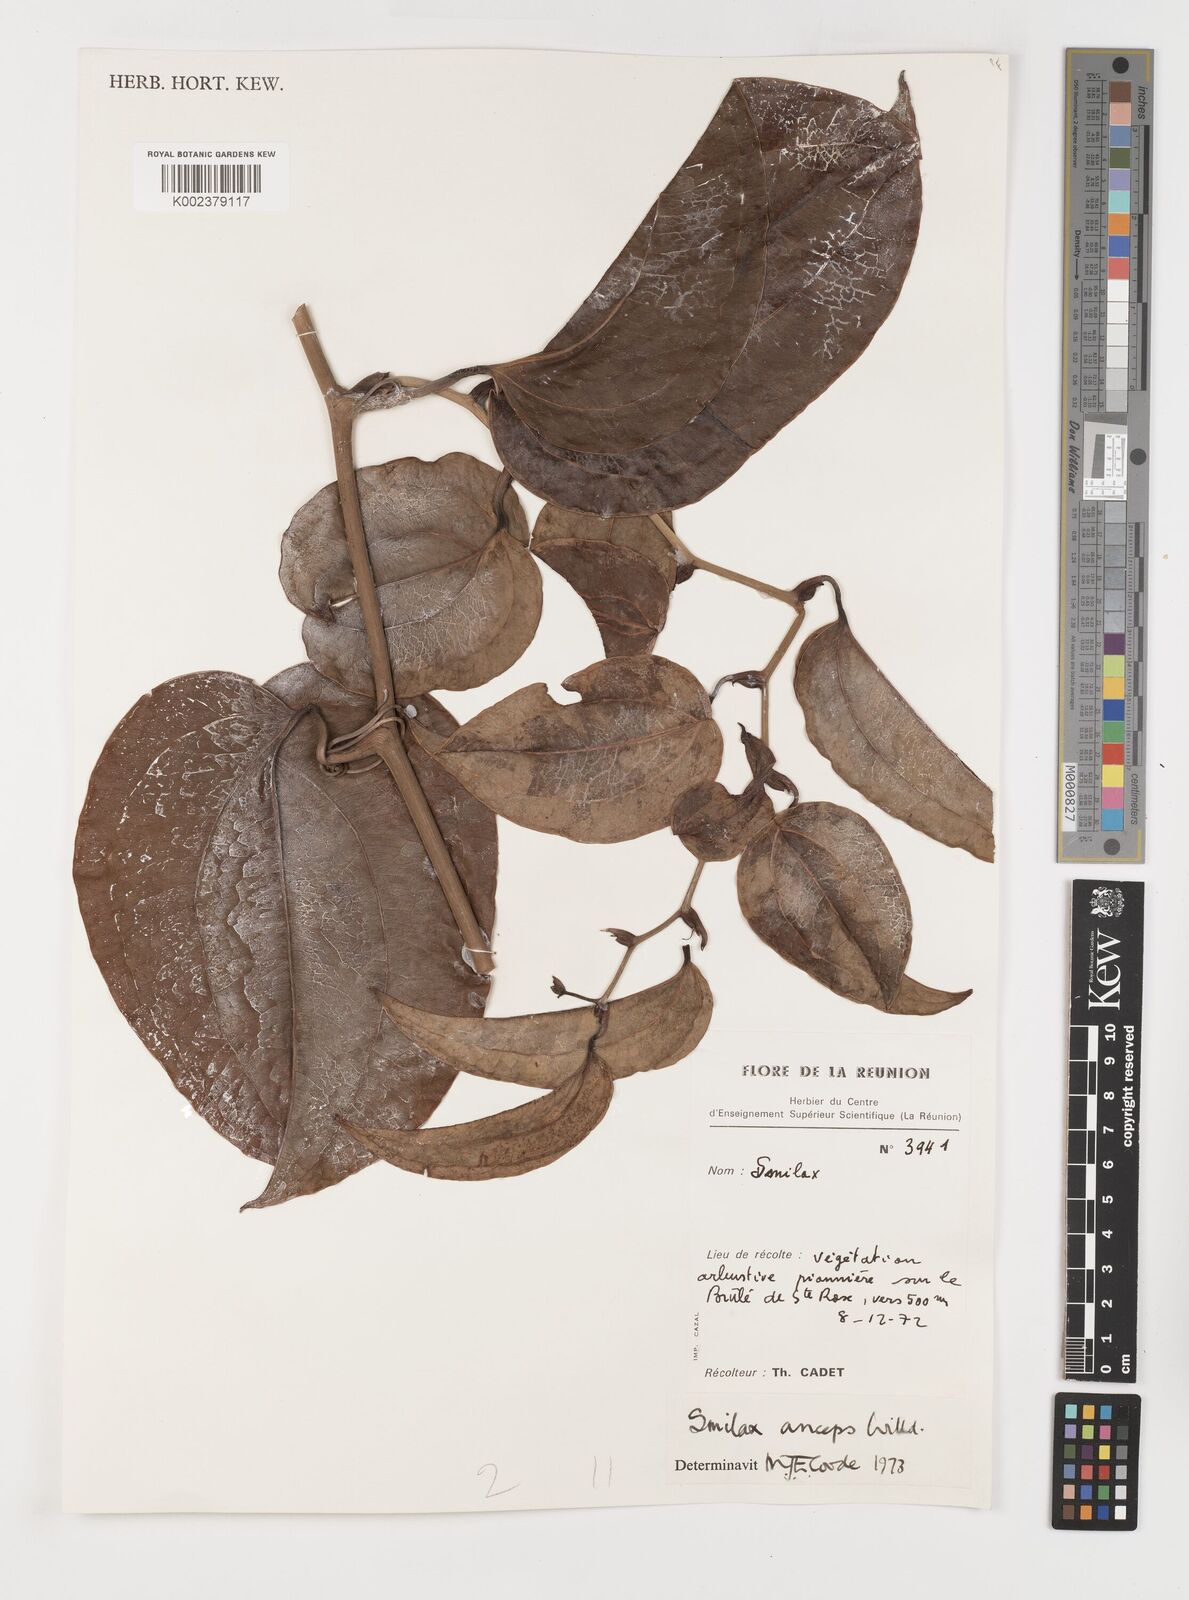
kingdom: Plantae
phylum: Tracheophyta
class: Liliopsida
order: Liliales
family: Smilacaceae
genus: Smilax
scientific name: Smilax anceps
